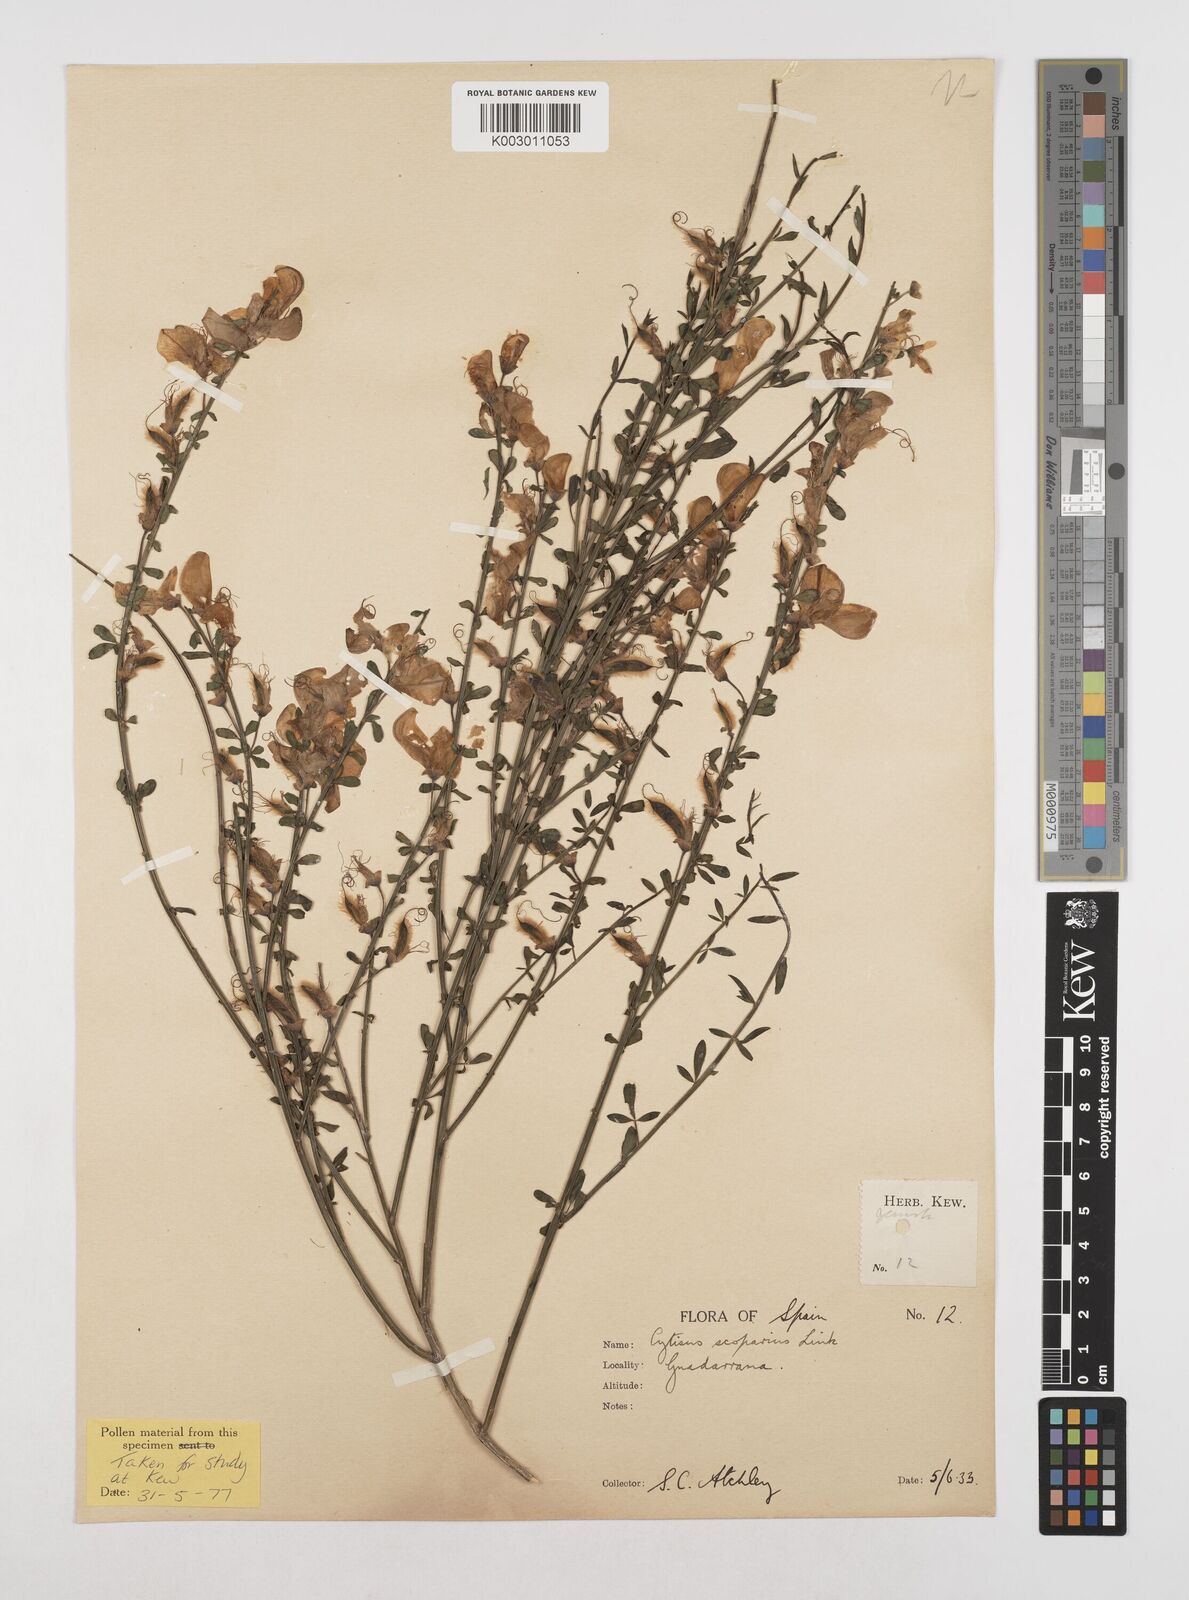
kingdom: Plantae
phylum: Tracheophyta
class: Magnoliopsida
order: Fabales
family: Fabaceae
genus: Cytisus
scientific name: Cytisus scoparius
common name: Scotch broom
